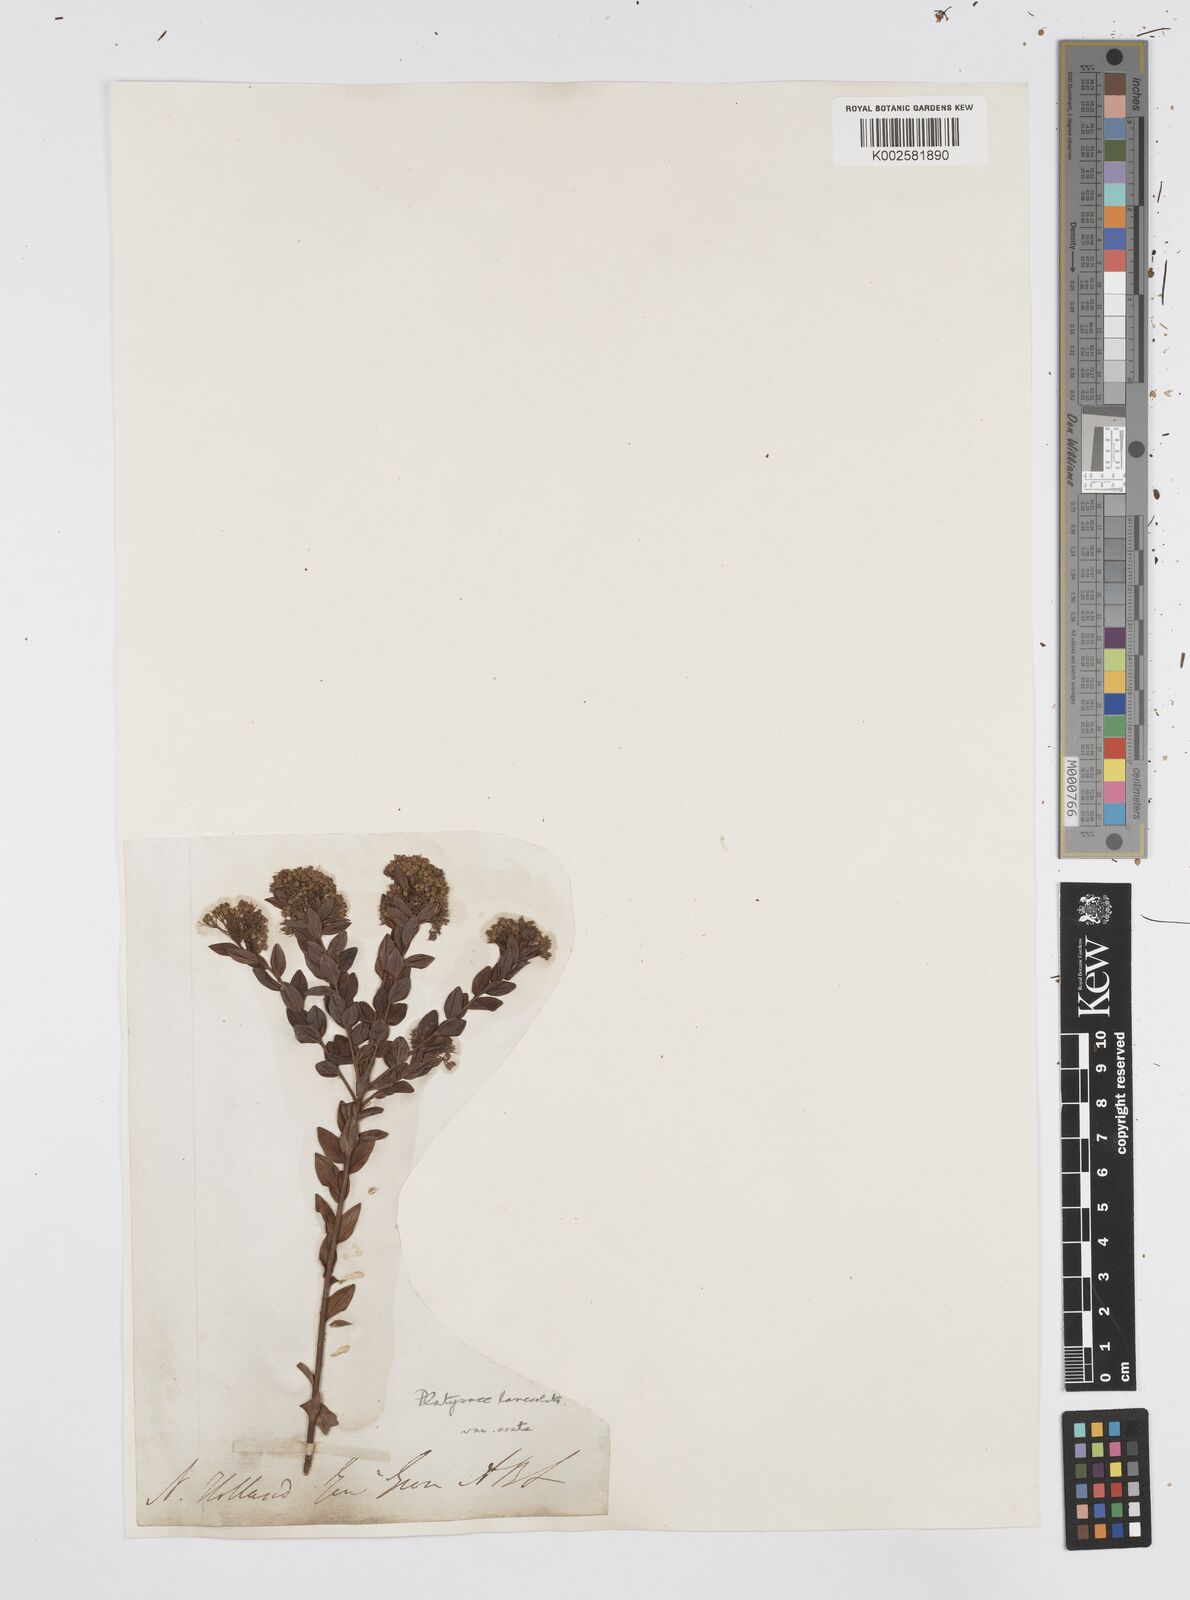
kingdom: Plantae
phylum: Tracheophyta
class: Magnoliopsida
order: Apiales
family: Apiaceae
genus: Platysace
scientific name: Platysace lanceolata
